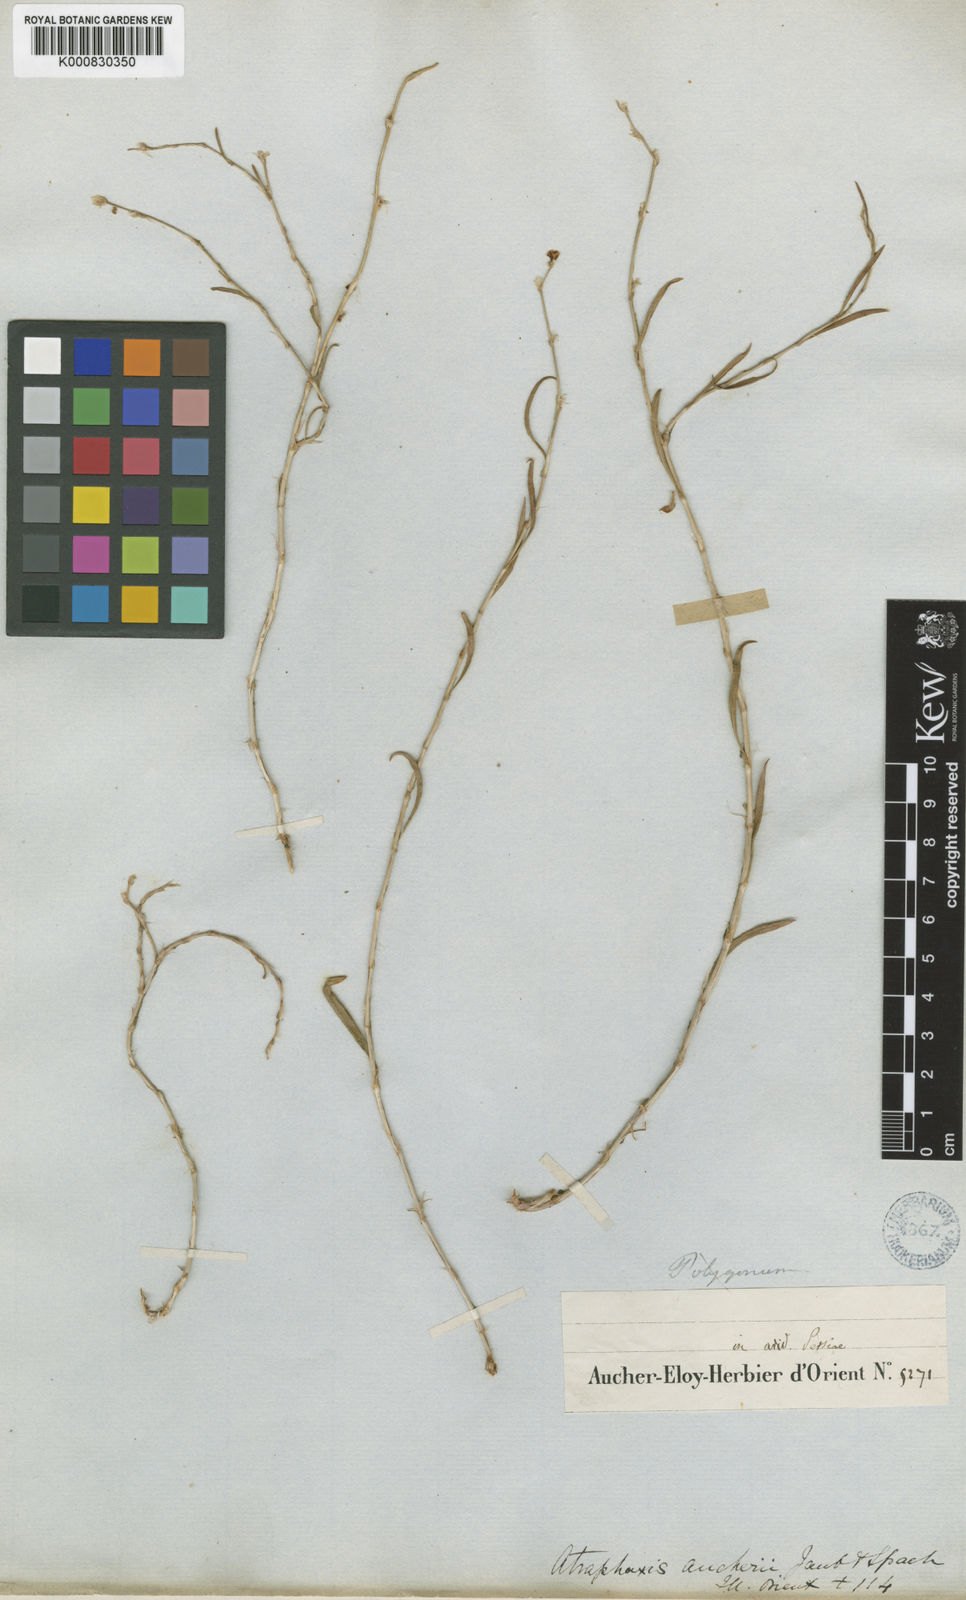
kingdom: Plantae
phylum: Tracheophyta
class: Magnoliopsida
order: Caryophyllales
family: Polygonaceae
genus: Atraphaxis
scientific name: Atraphaxis aucheri
